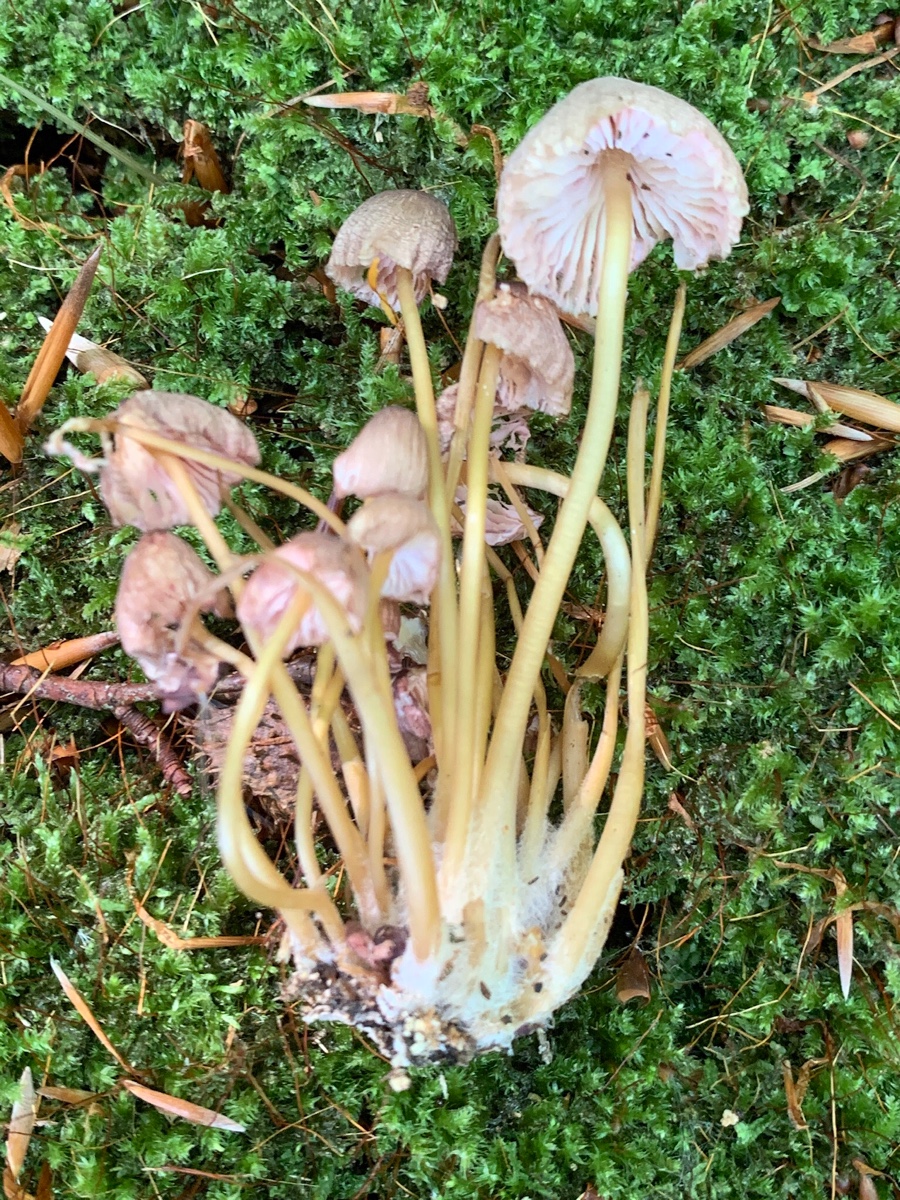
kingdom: Fungi
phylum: Basidiomycota
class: Agaricomycetes
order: Agaricales
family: Mycenaceae
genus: Mycena
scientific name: Mycena renati
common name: smuk huesvamp
